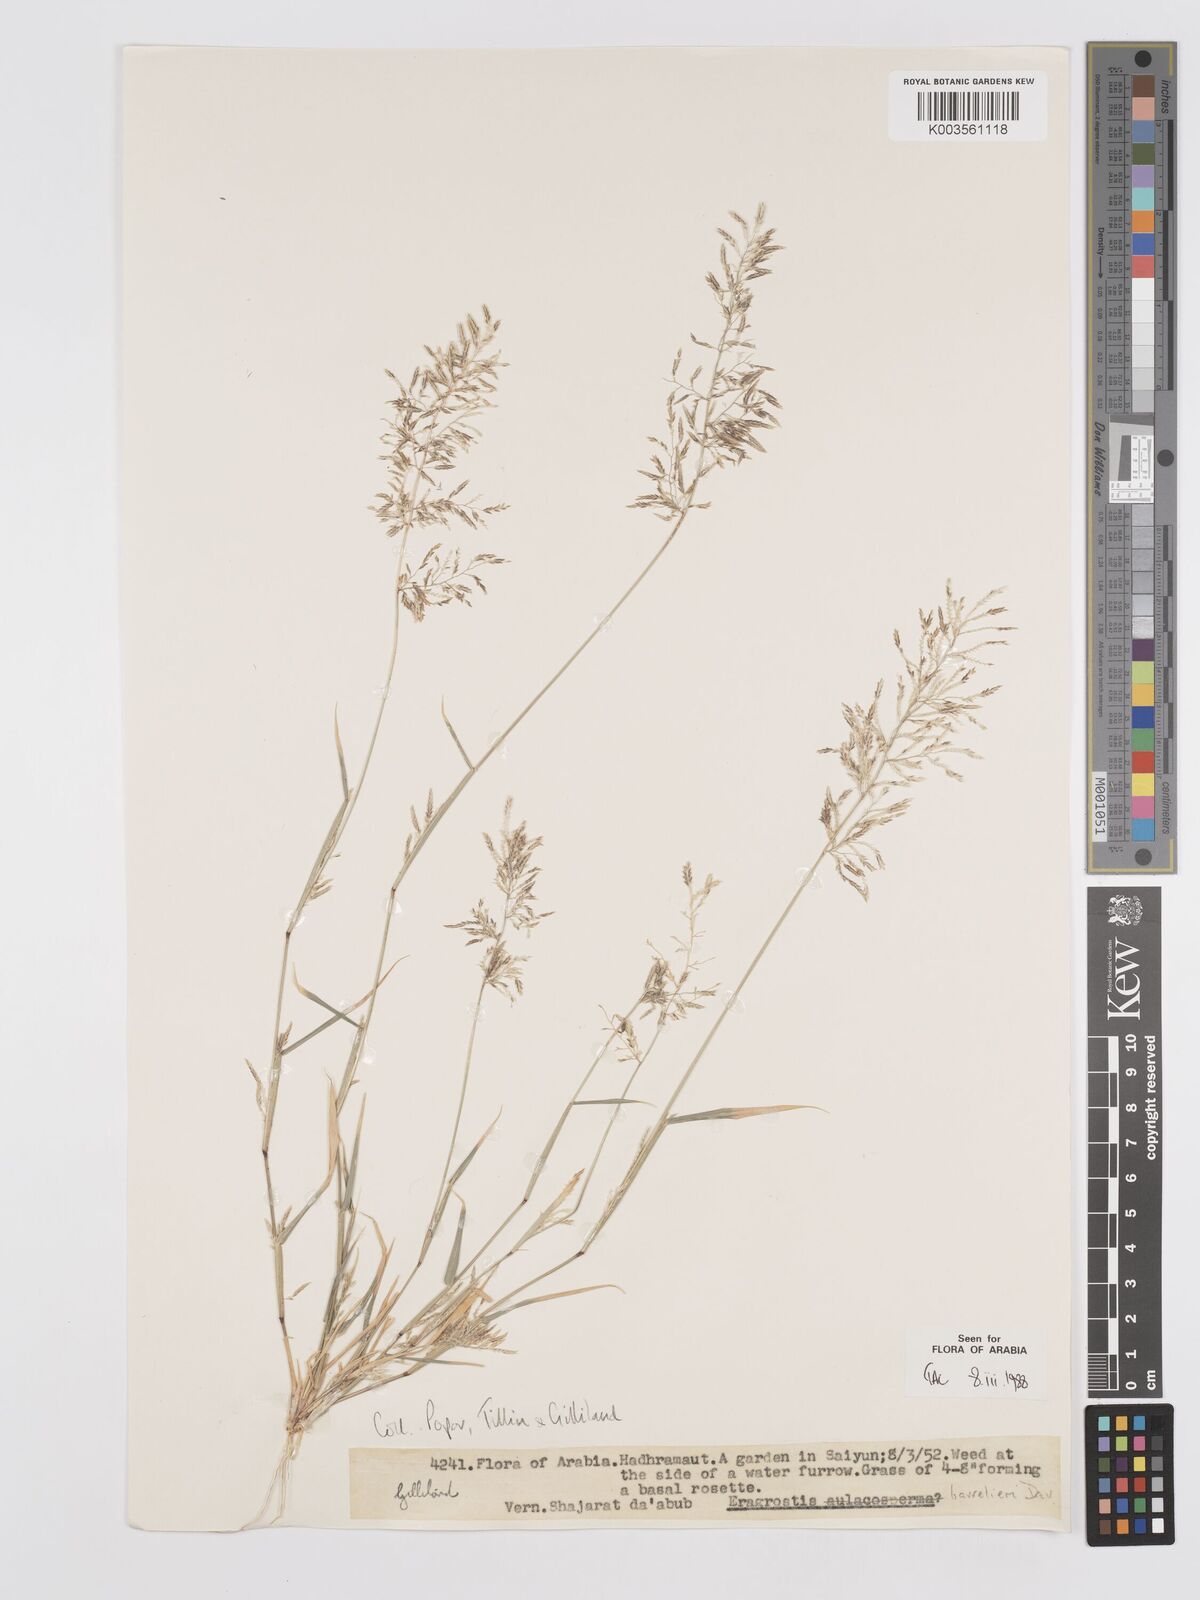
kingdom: Plantae
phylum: Tracheophyta
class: Liliopsida
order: Poales
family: Poaceae
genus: Eragrostis
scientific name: Eragrostis barrelieri
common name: Mediterranean lovegrass
